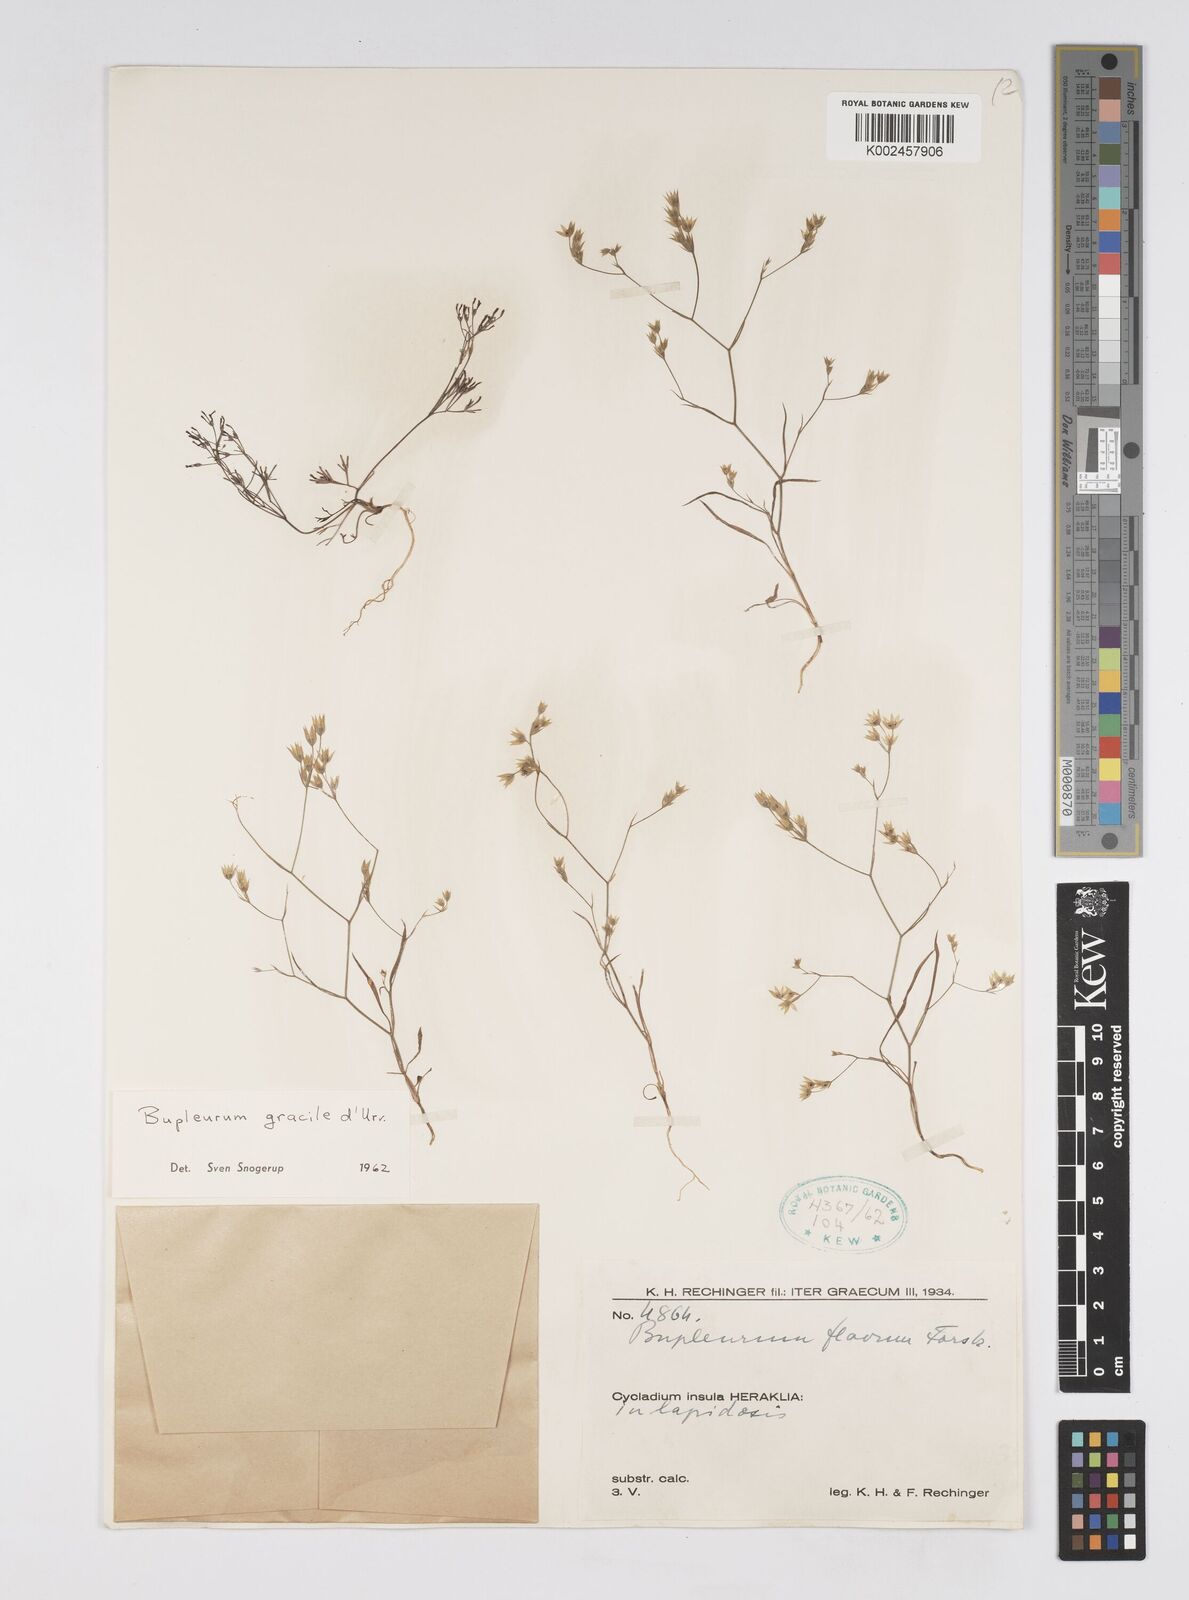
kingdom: Plantae
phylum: Tracheophyta
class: Magnoliopsida
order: Apiales
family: Apiaceae
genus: Bupleurum
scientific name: Bupleurum gracile
